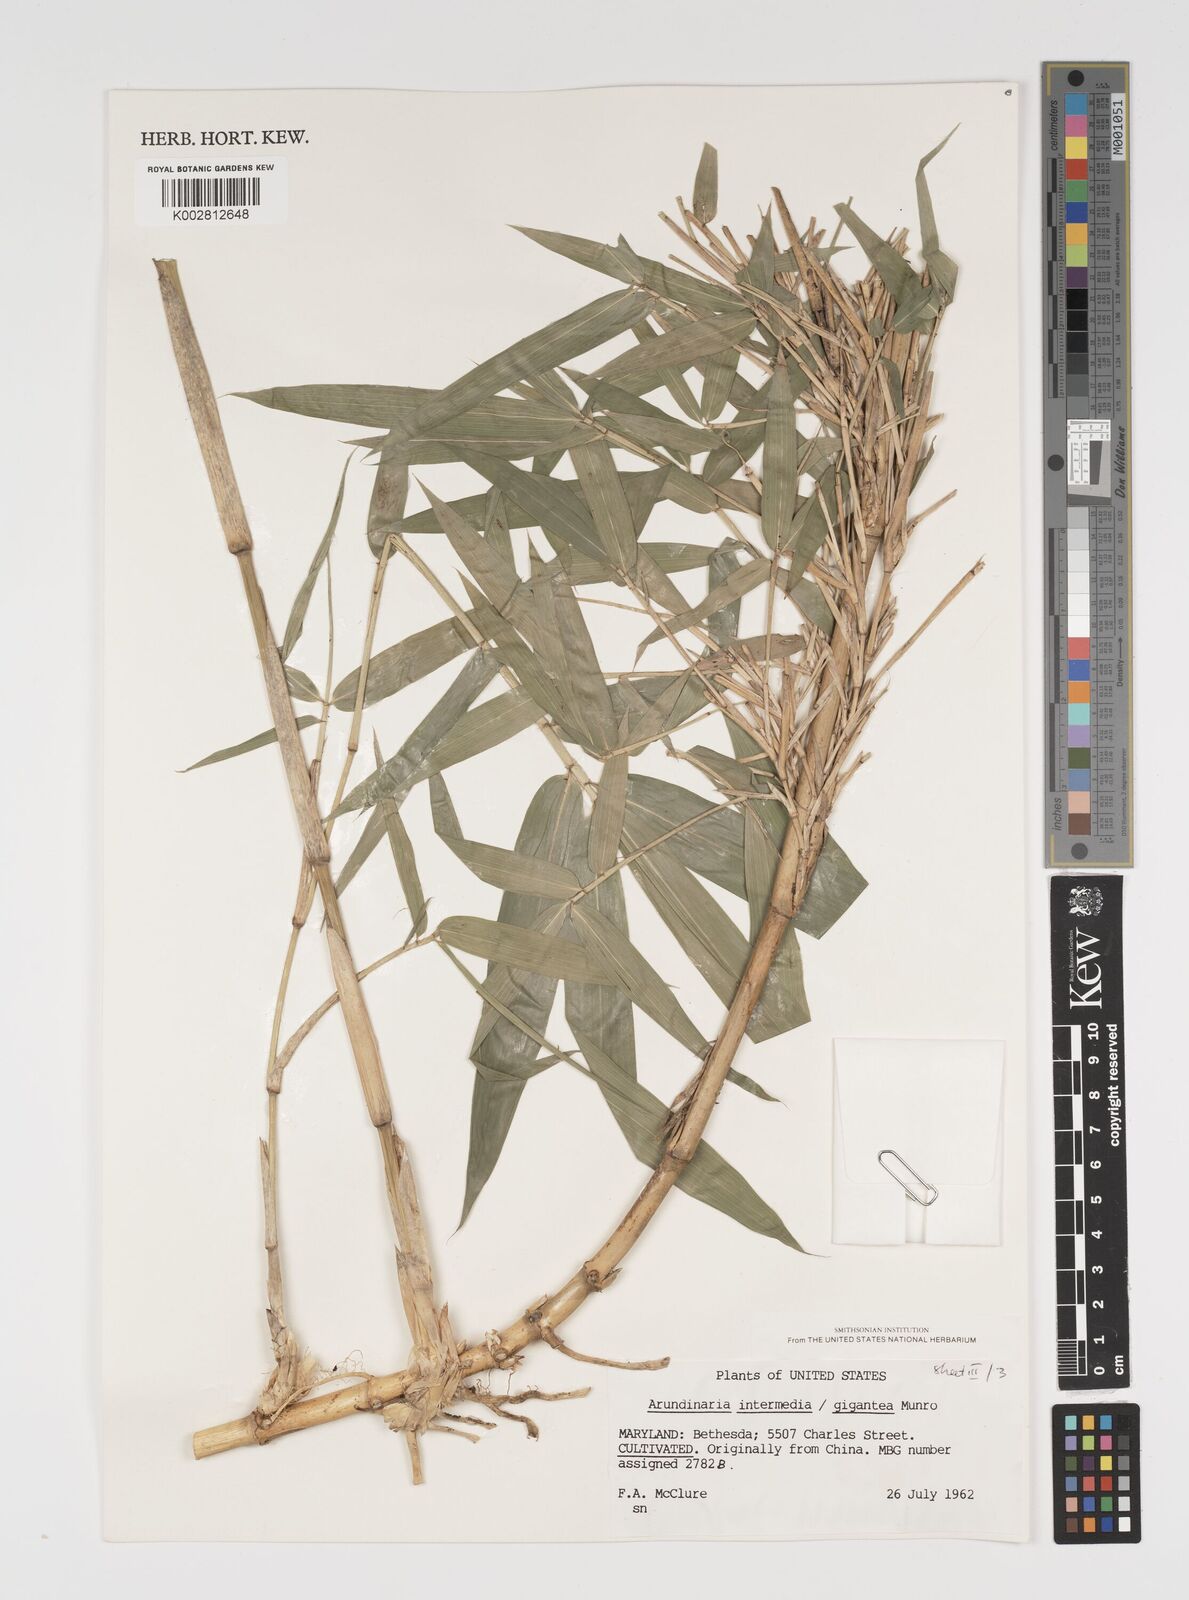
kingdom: Plantae
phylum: Tracheophyta
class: Liliopsida
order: Poales
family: Poaceae
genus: Arundinaria
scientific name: Arundinaria
